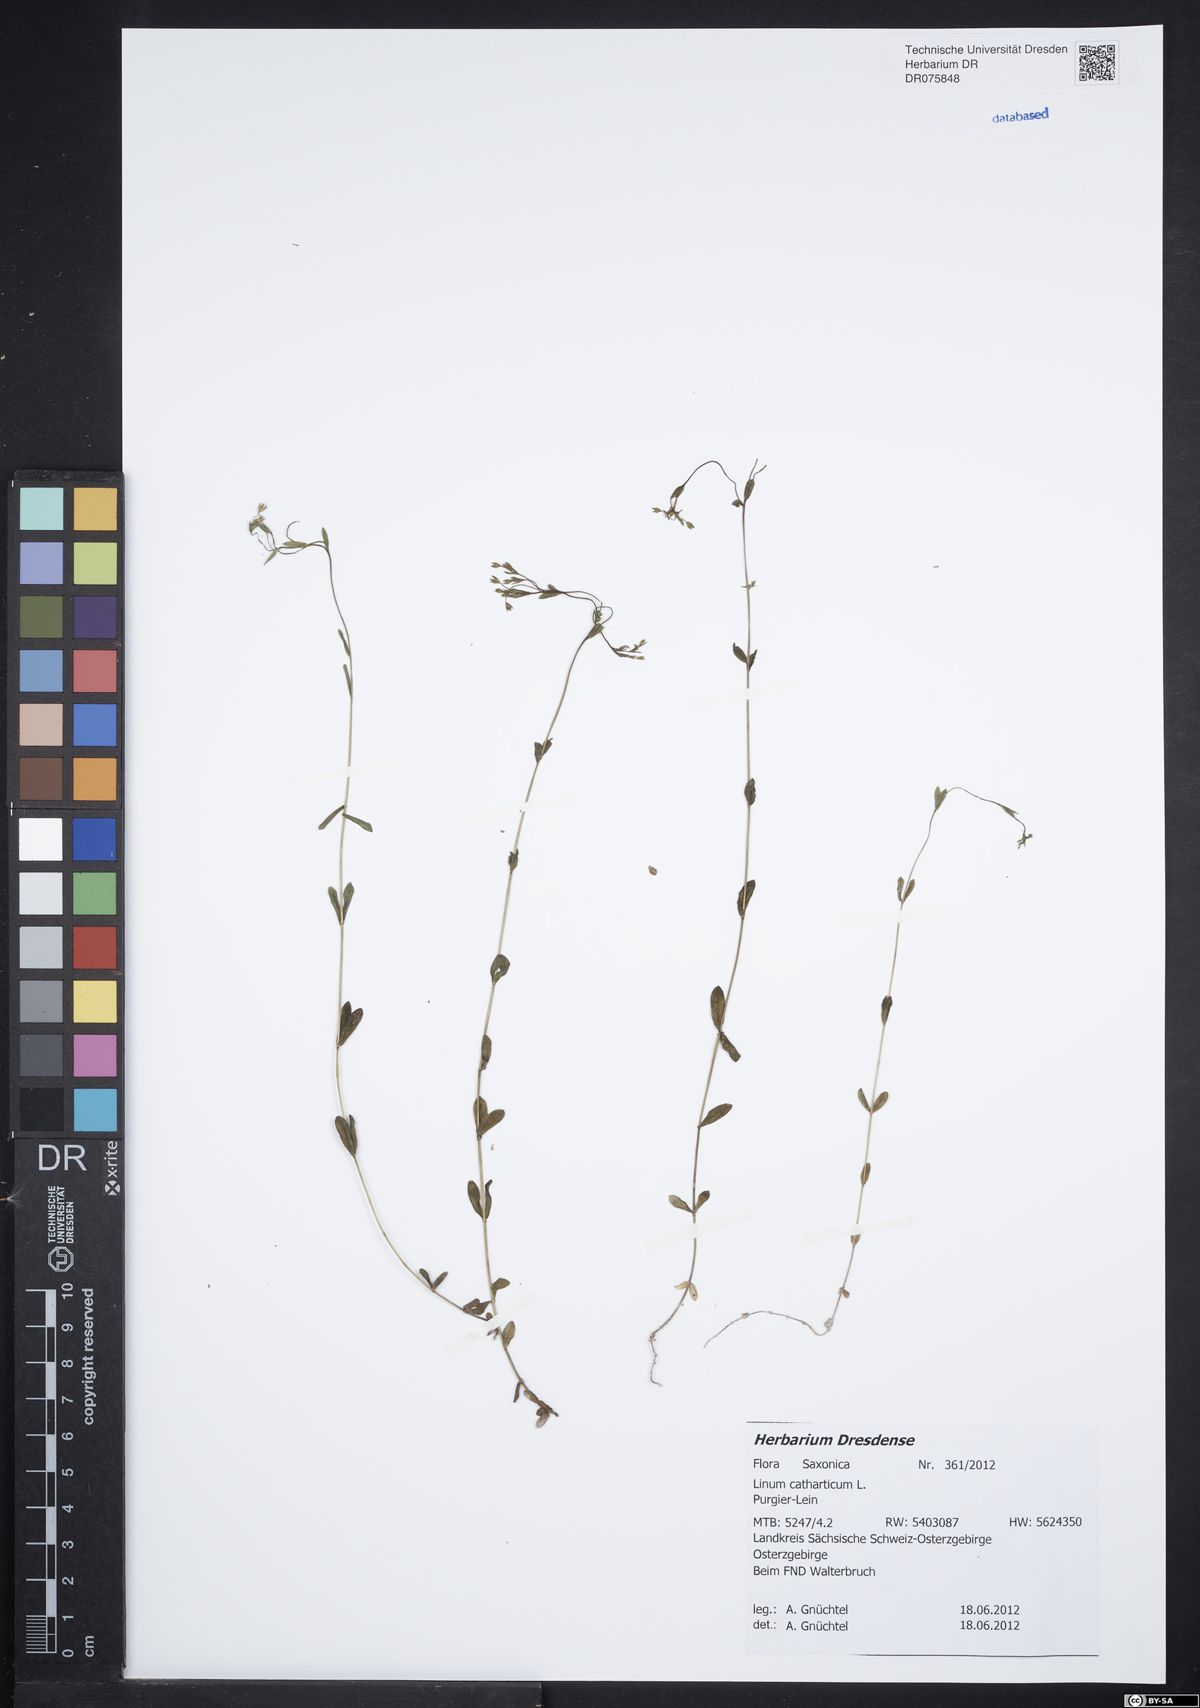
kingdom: Plantae
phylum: Tracheophyta
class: Magnoliopsida
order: Malpighiales
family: Linaceae
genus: Linum
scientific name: Linum catharticum
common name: Fairy flax
